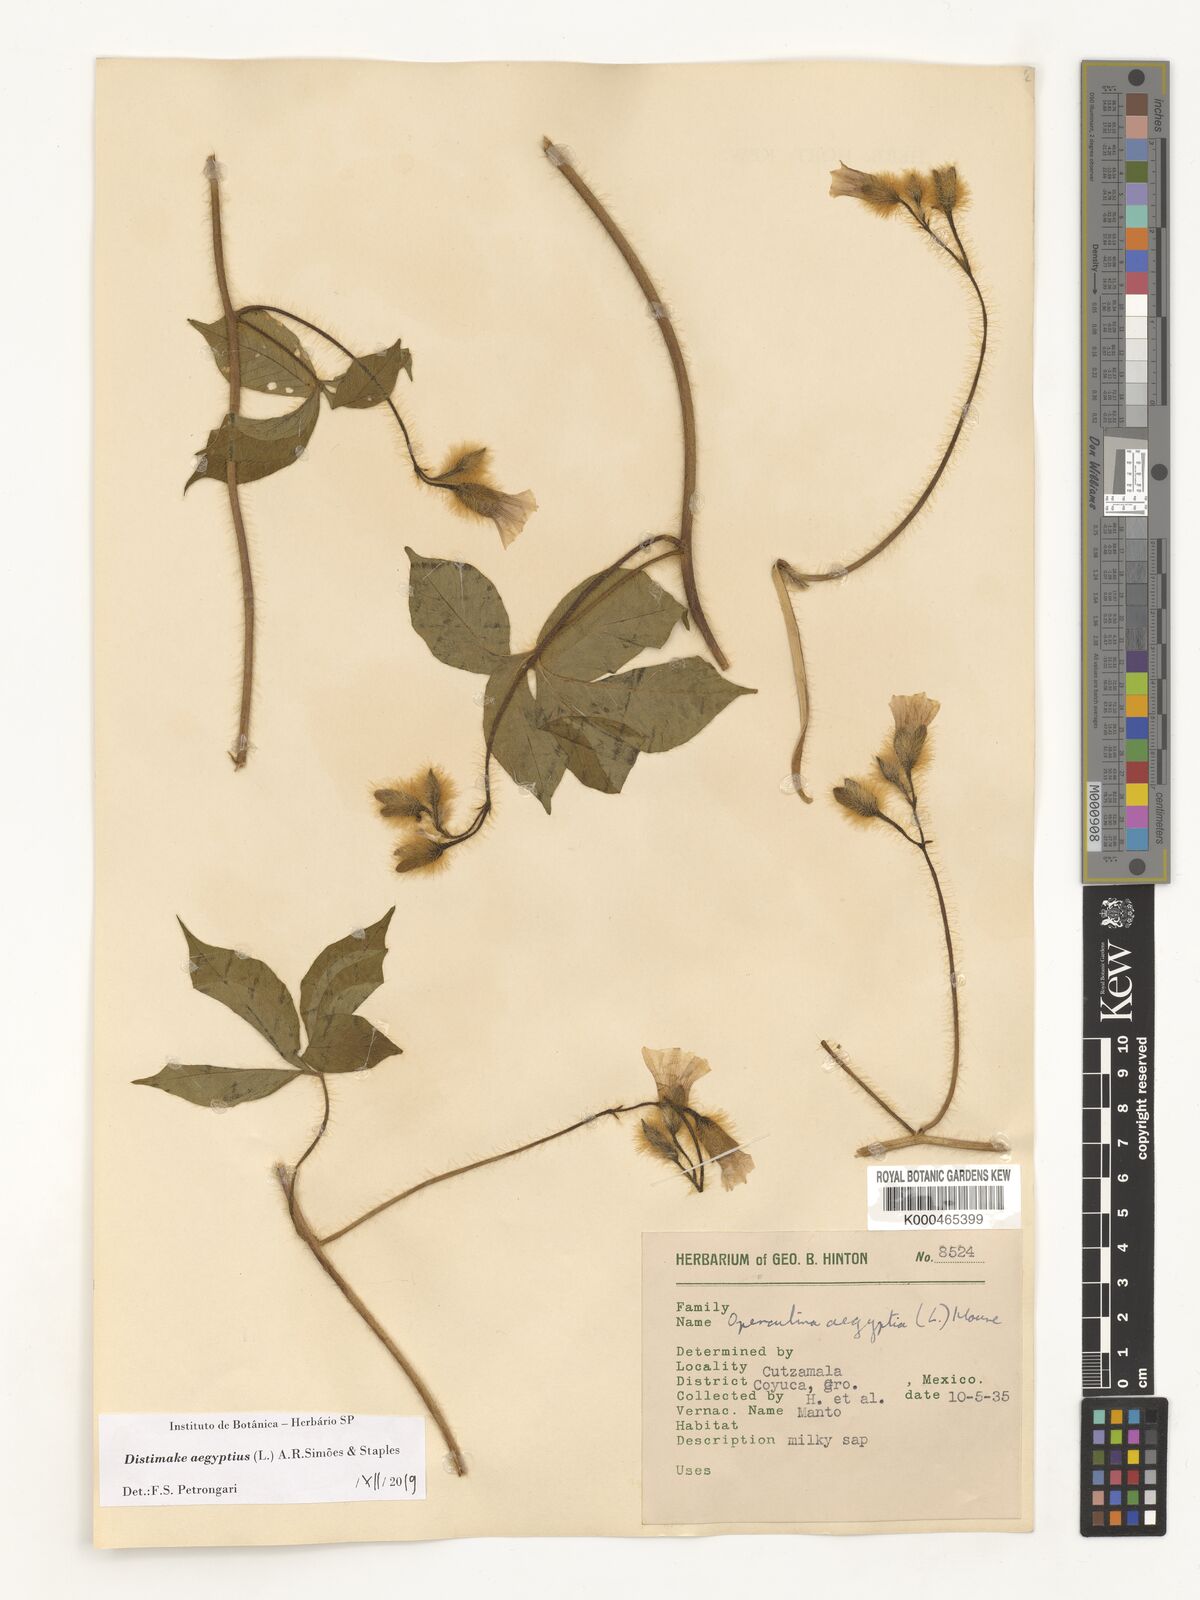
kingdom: Plantae
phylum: Tracheophyta
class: Magnoliopsida
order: Solanales
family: Convolvulaceae
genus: Distimake
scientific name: Distimake aegyptius
